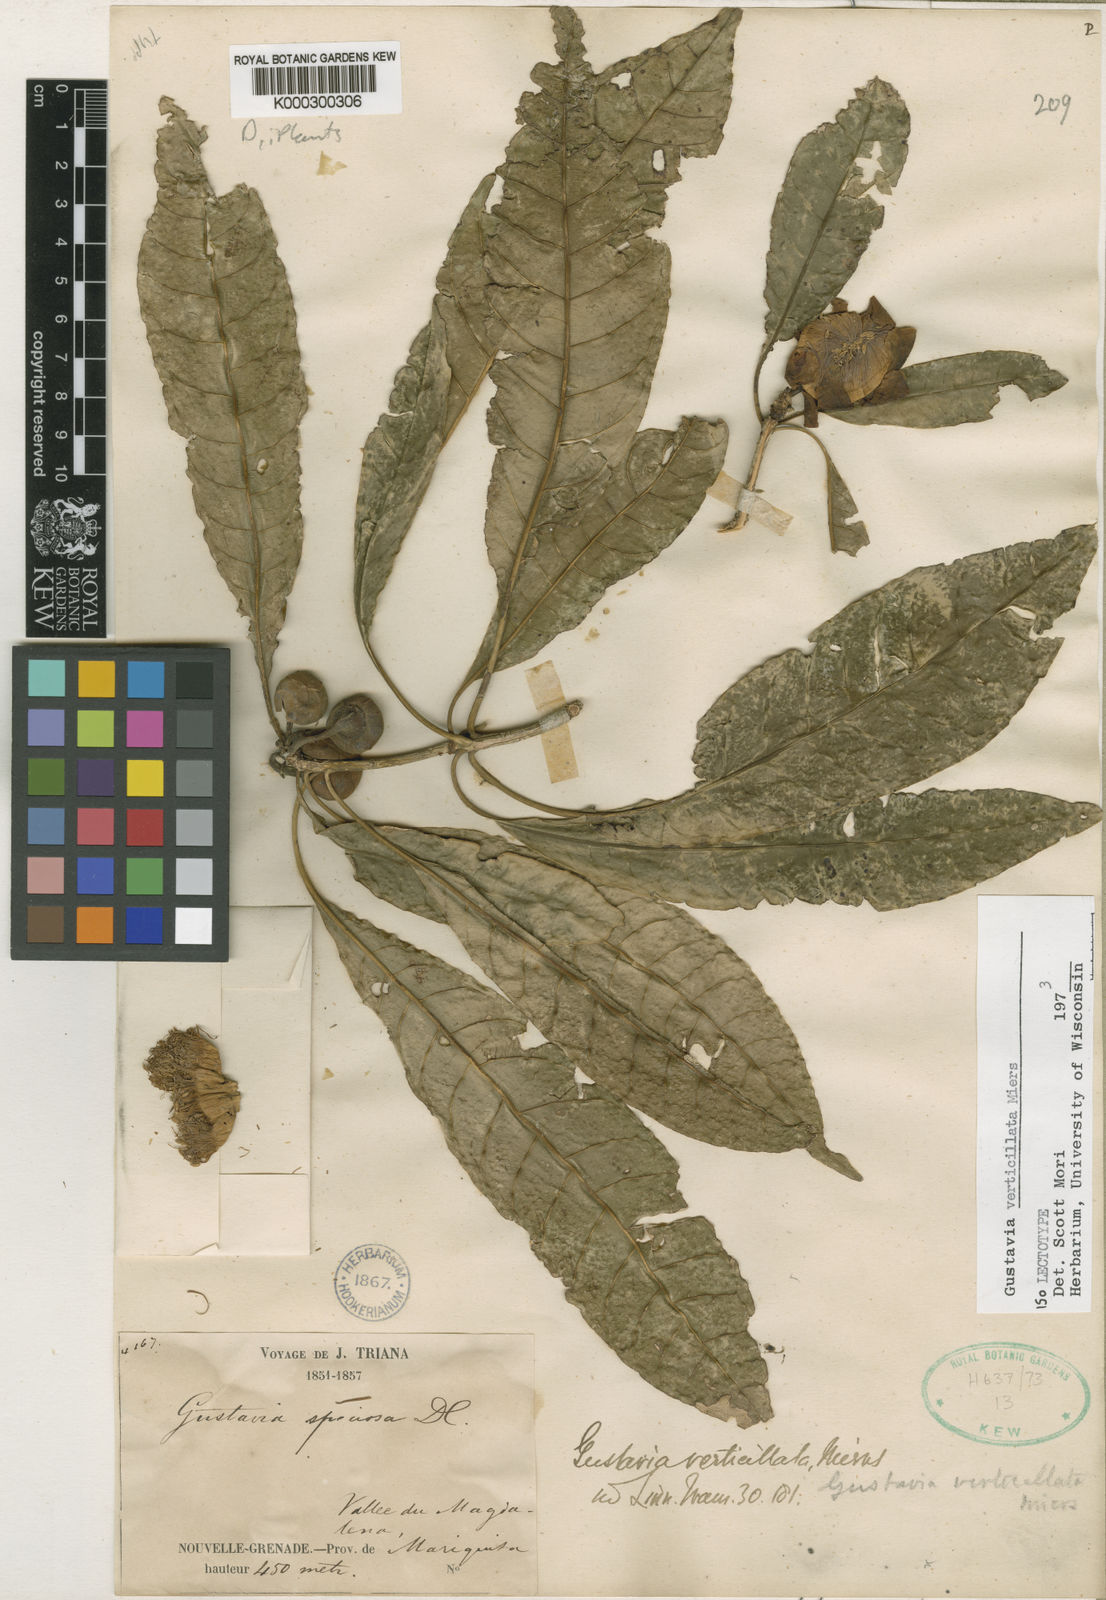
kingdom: Plantae
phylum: Tracheophyta
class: Magnoliopsida
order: Ericales
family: Lecythidaceae
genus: Gustavia
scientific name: Gustavia verticillata
